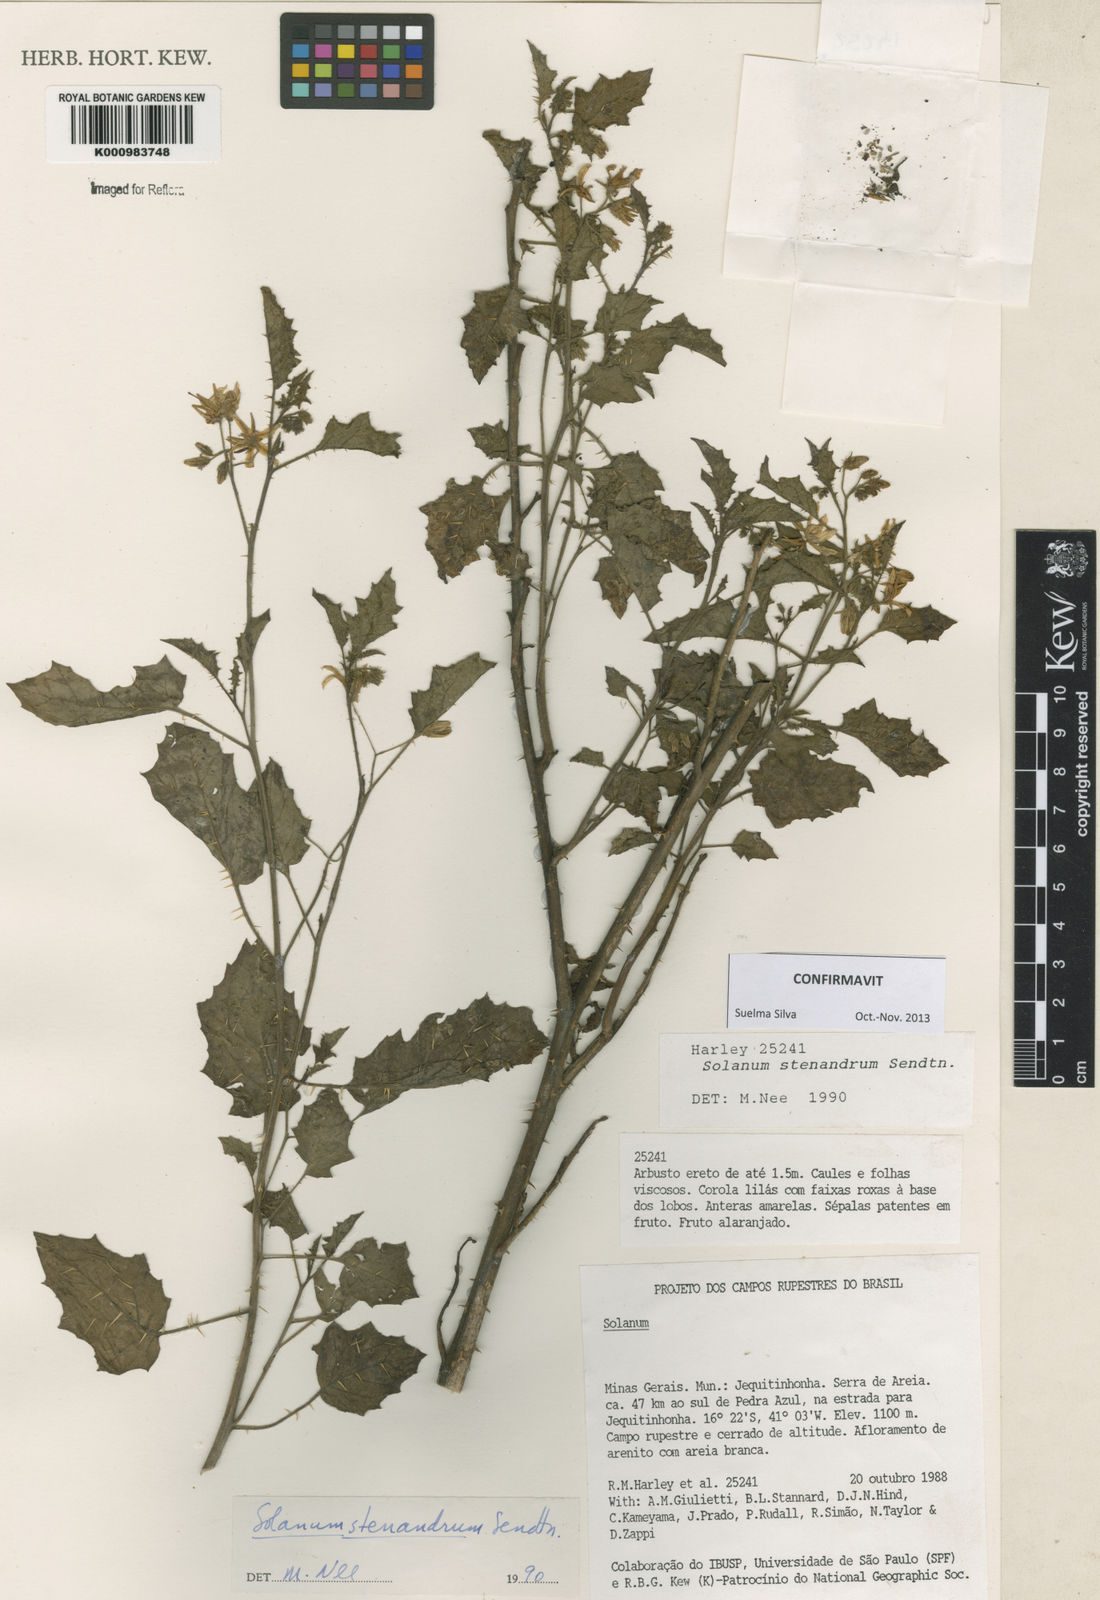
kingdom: Plantae
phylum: Tracheophyta
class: Magnoliopsida
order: Solanales
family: Solanaceae
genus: Solanum
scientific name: Solanum stenandrum
